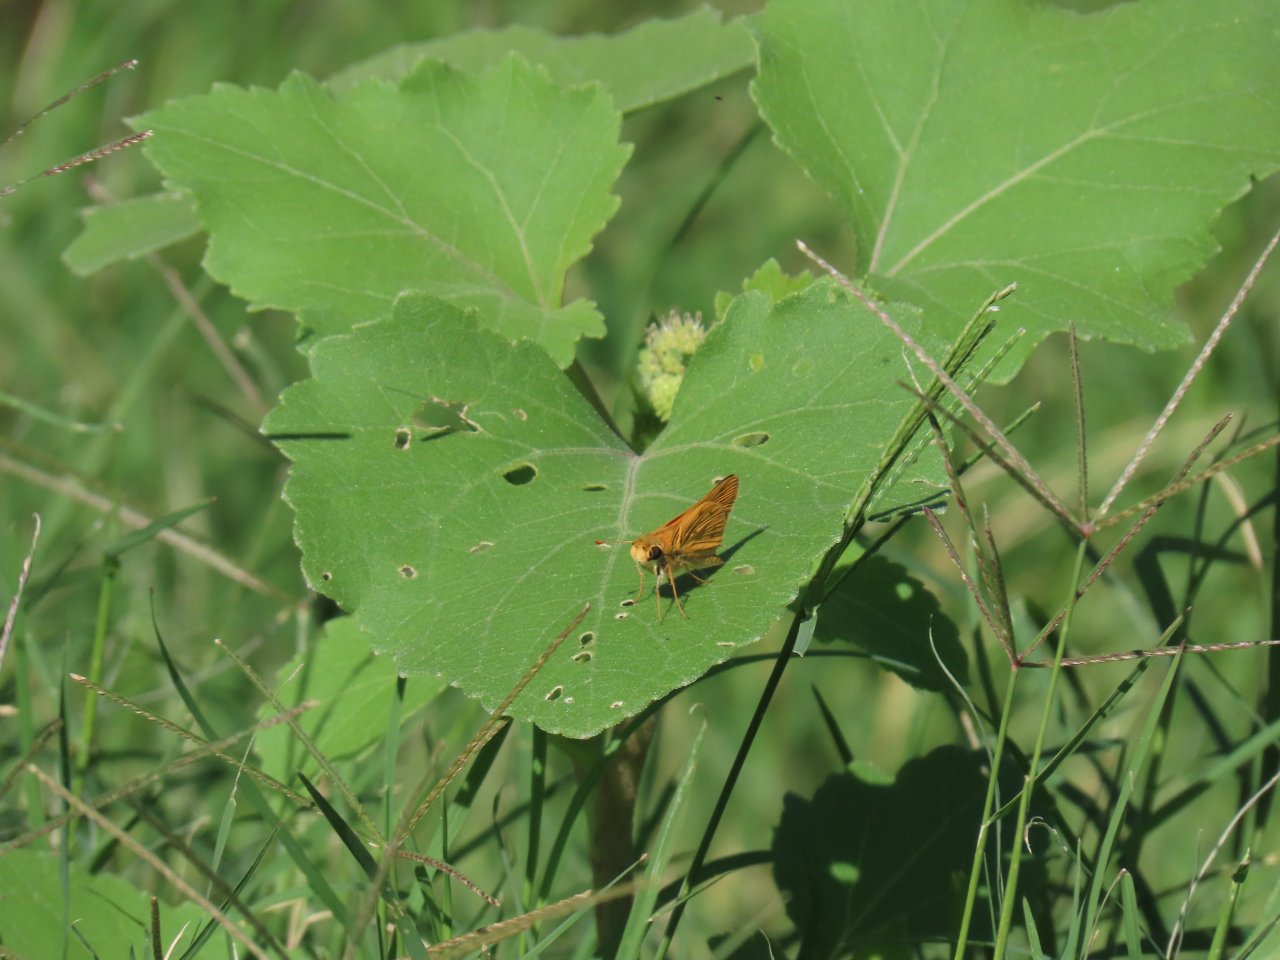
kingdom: Animalia
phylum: Arthropoda
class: Insecta
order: Lepidoptera
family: Hesperiidae
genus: Hylephila
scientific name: Hylephila phyleus
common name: Fiery Skipper
